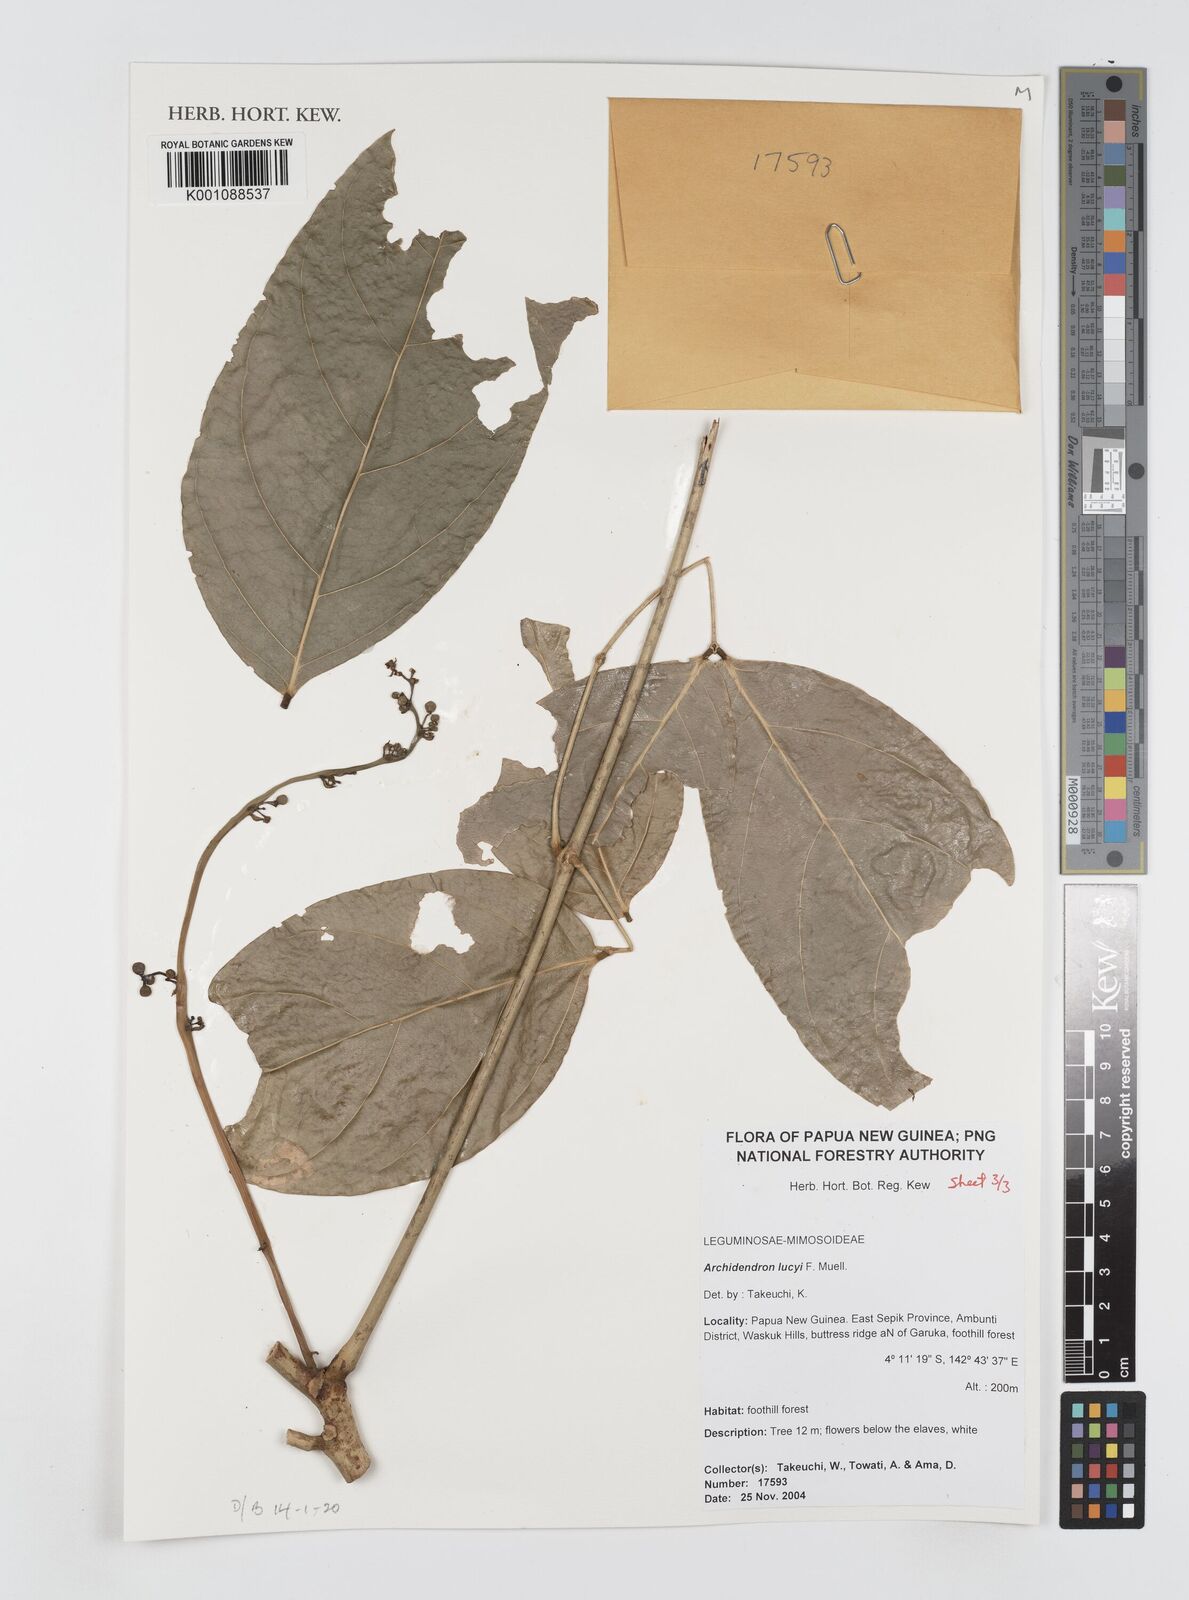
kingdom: Plantae
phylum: Tracheophyta
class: Magnoliopsida
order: Fabales
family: Fabaceae
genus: Archidendron
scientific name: Archidendron lucyi
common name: Scarlet bean
